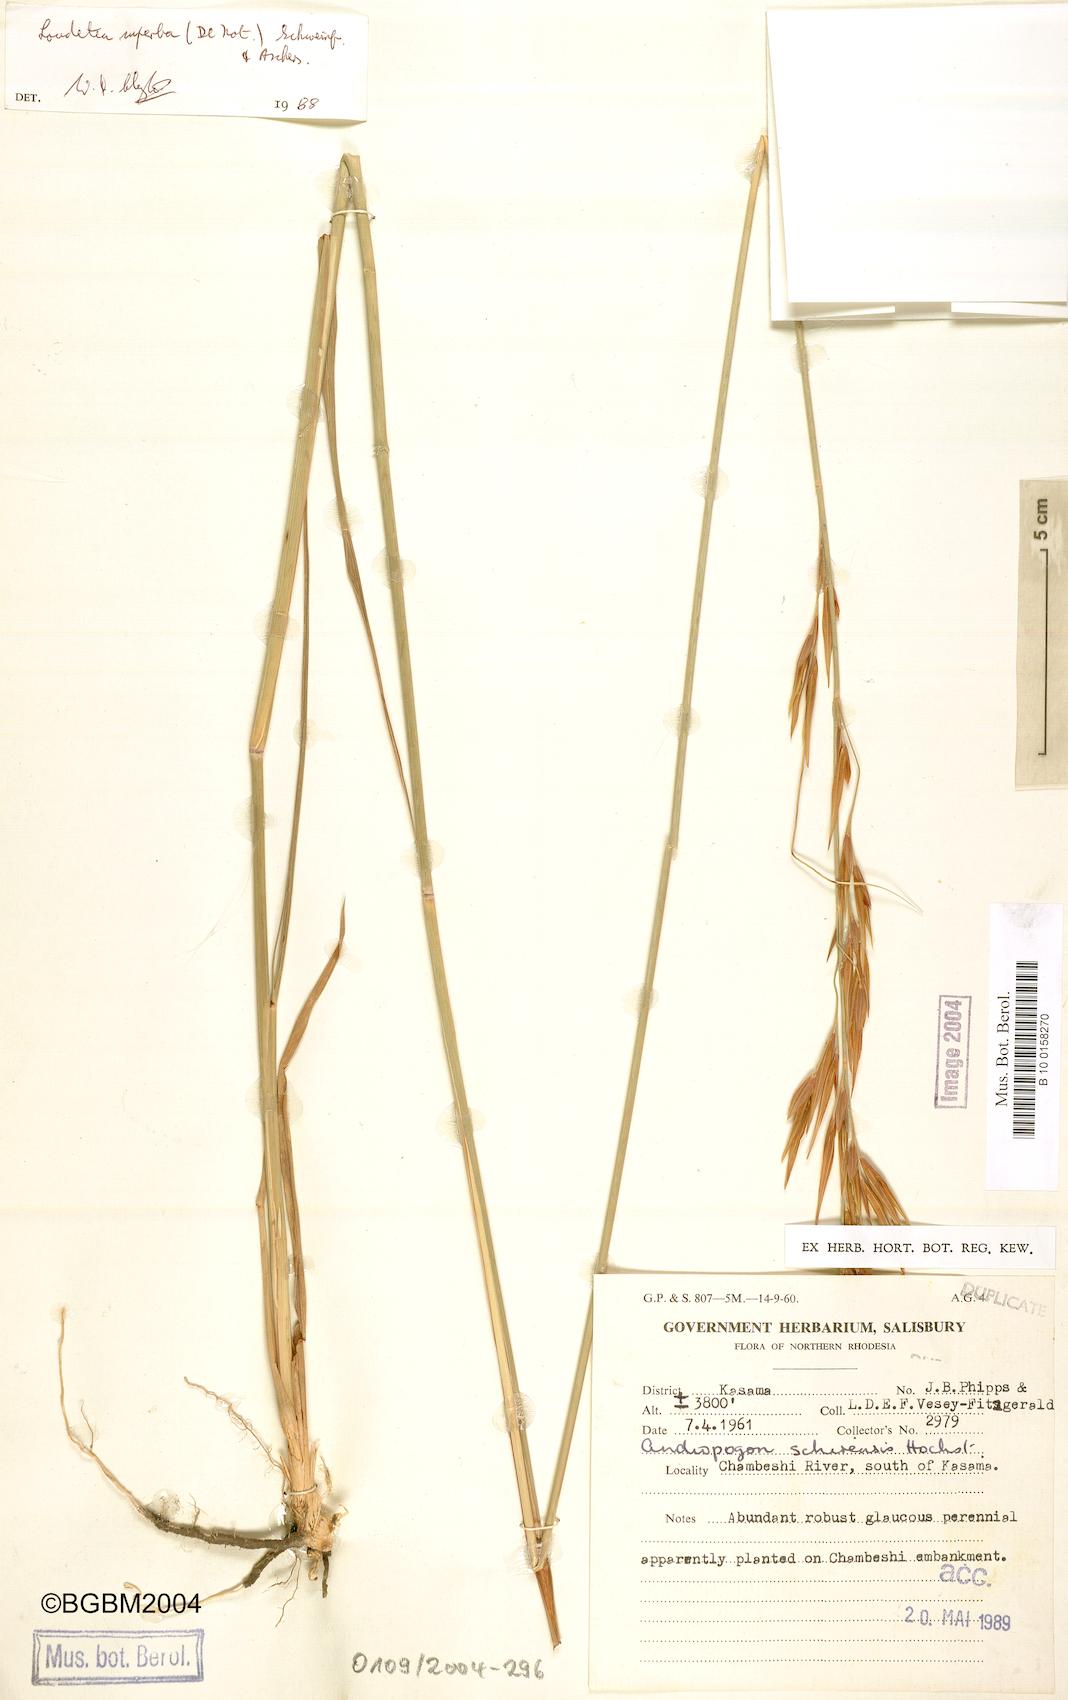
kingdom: Plantae
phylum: Tracheophyta
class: Liliopsida
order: Poales
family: Poaceae
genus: Tristachya
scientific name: Tristachya superba
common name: Giant trident grass
